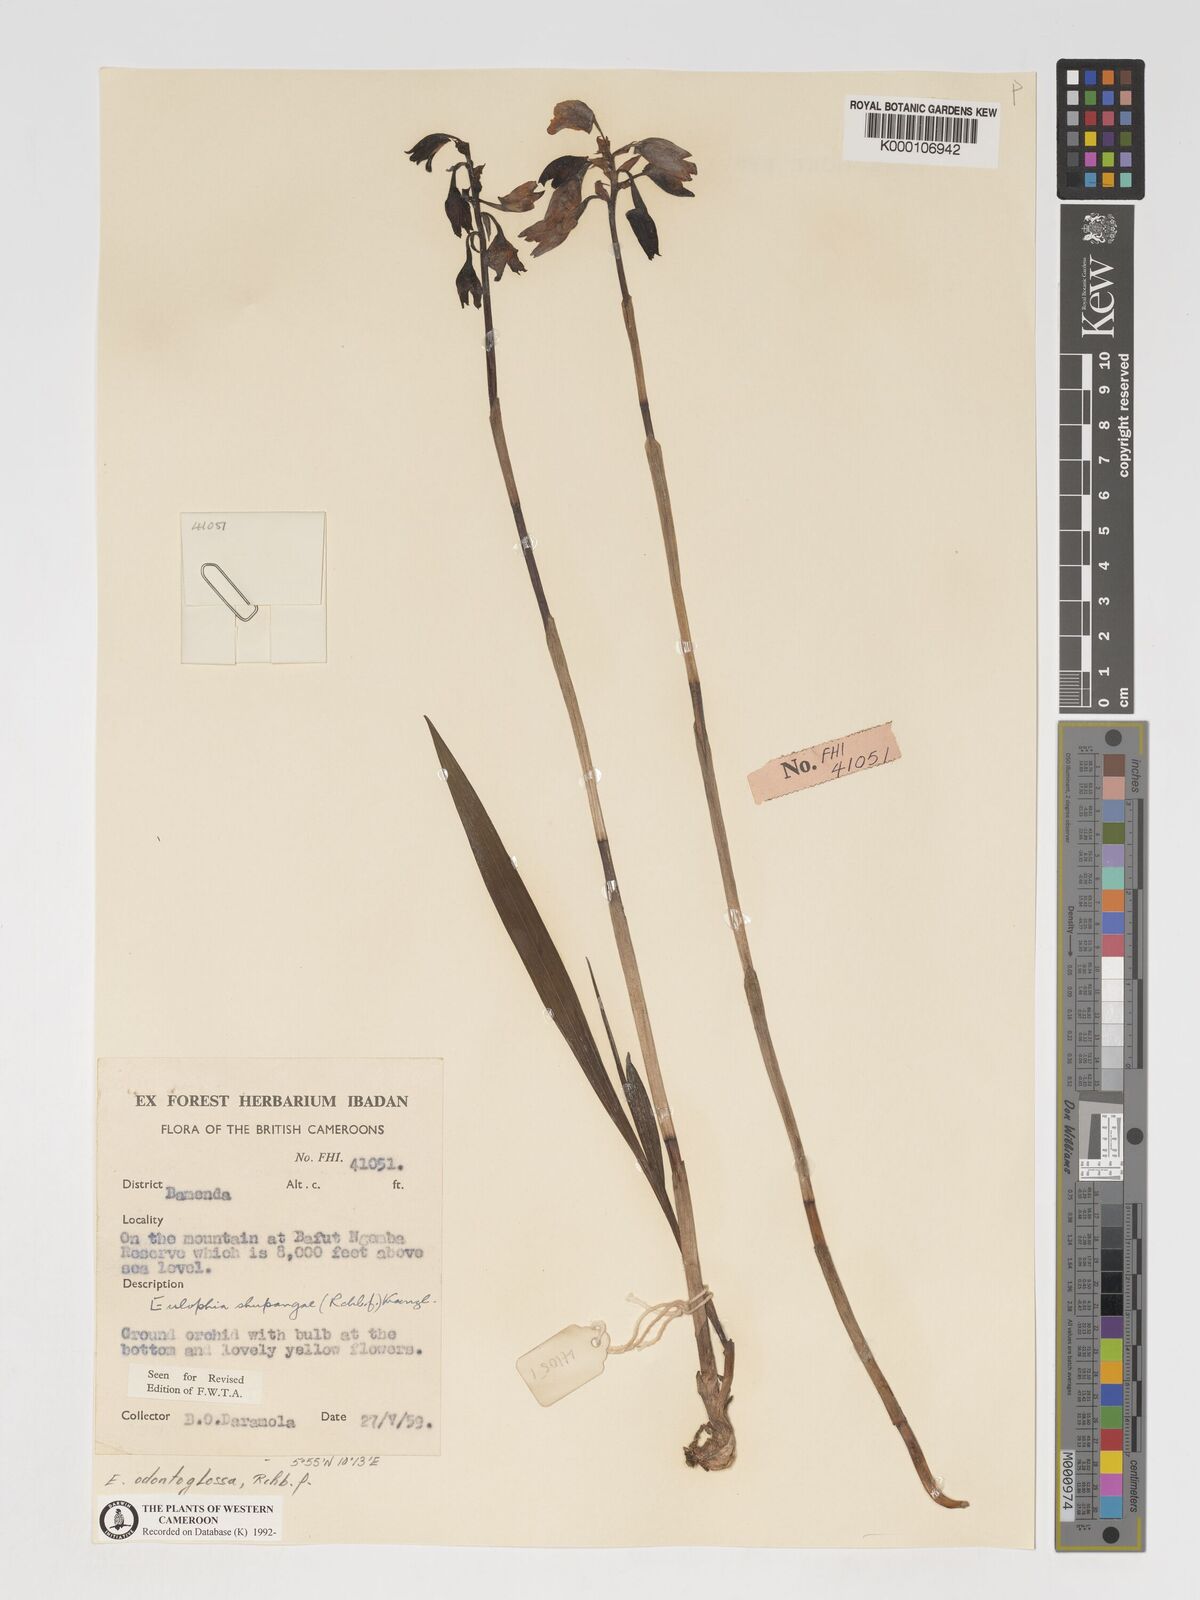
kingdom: Plantae
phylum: Tracheophyta
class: Liliopsida
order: Asparagales
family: Orchidaceae
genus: Eulophia
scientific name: Eulophia odontoglossa
